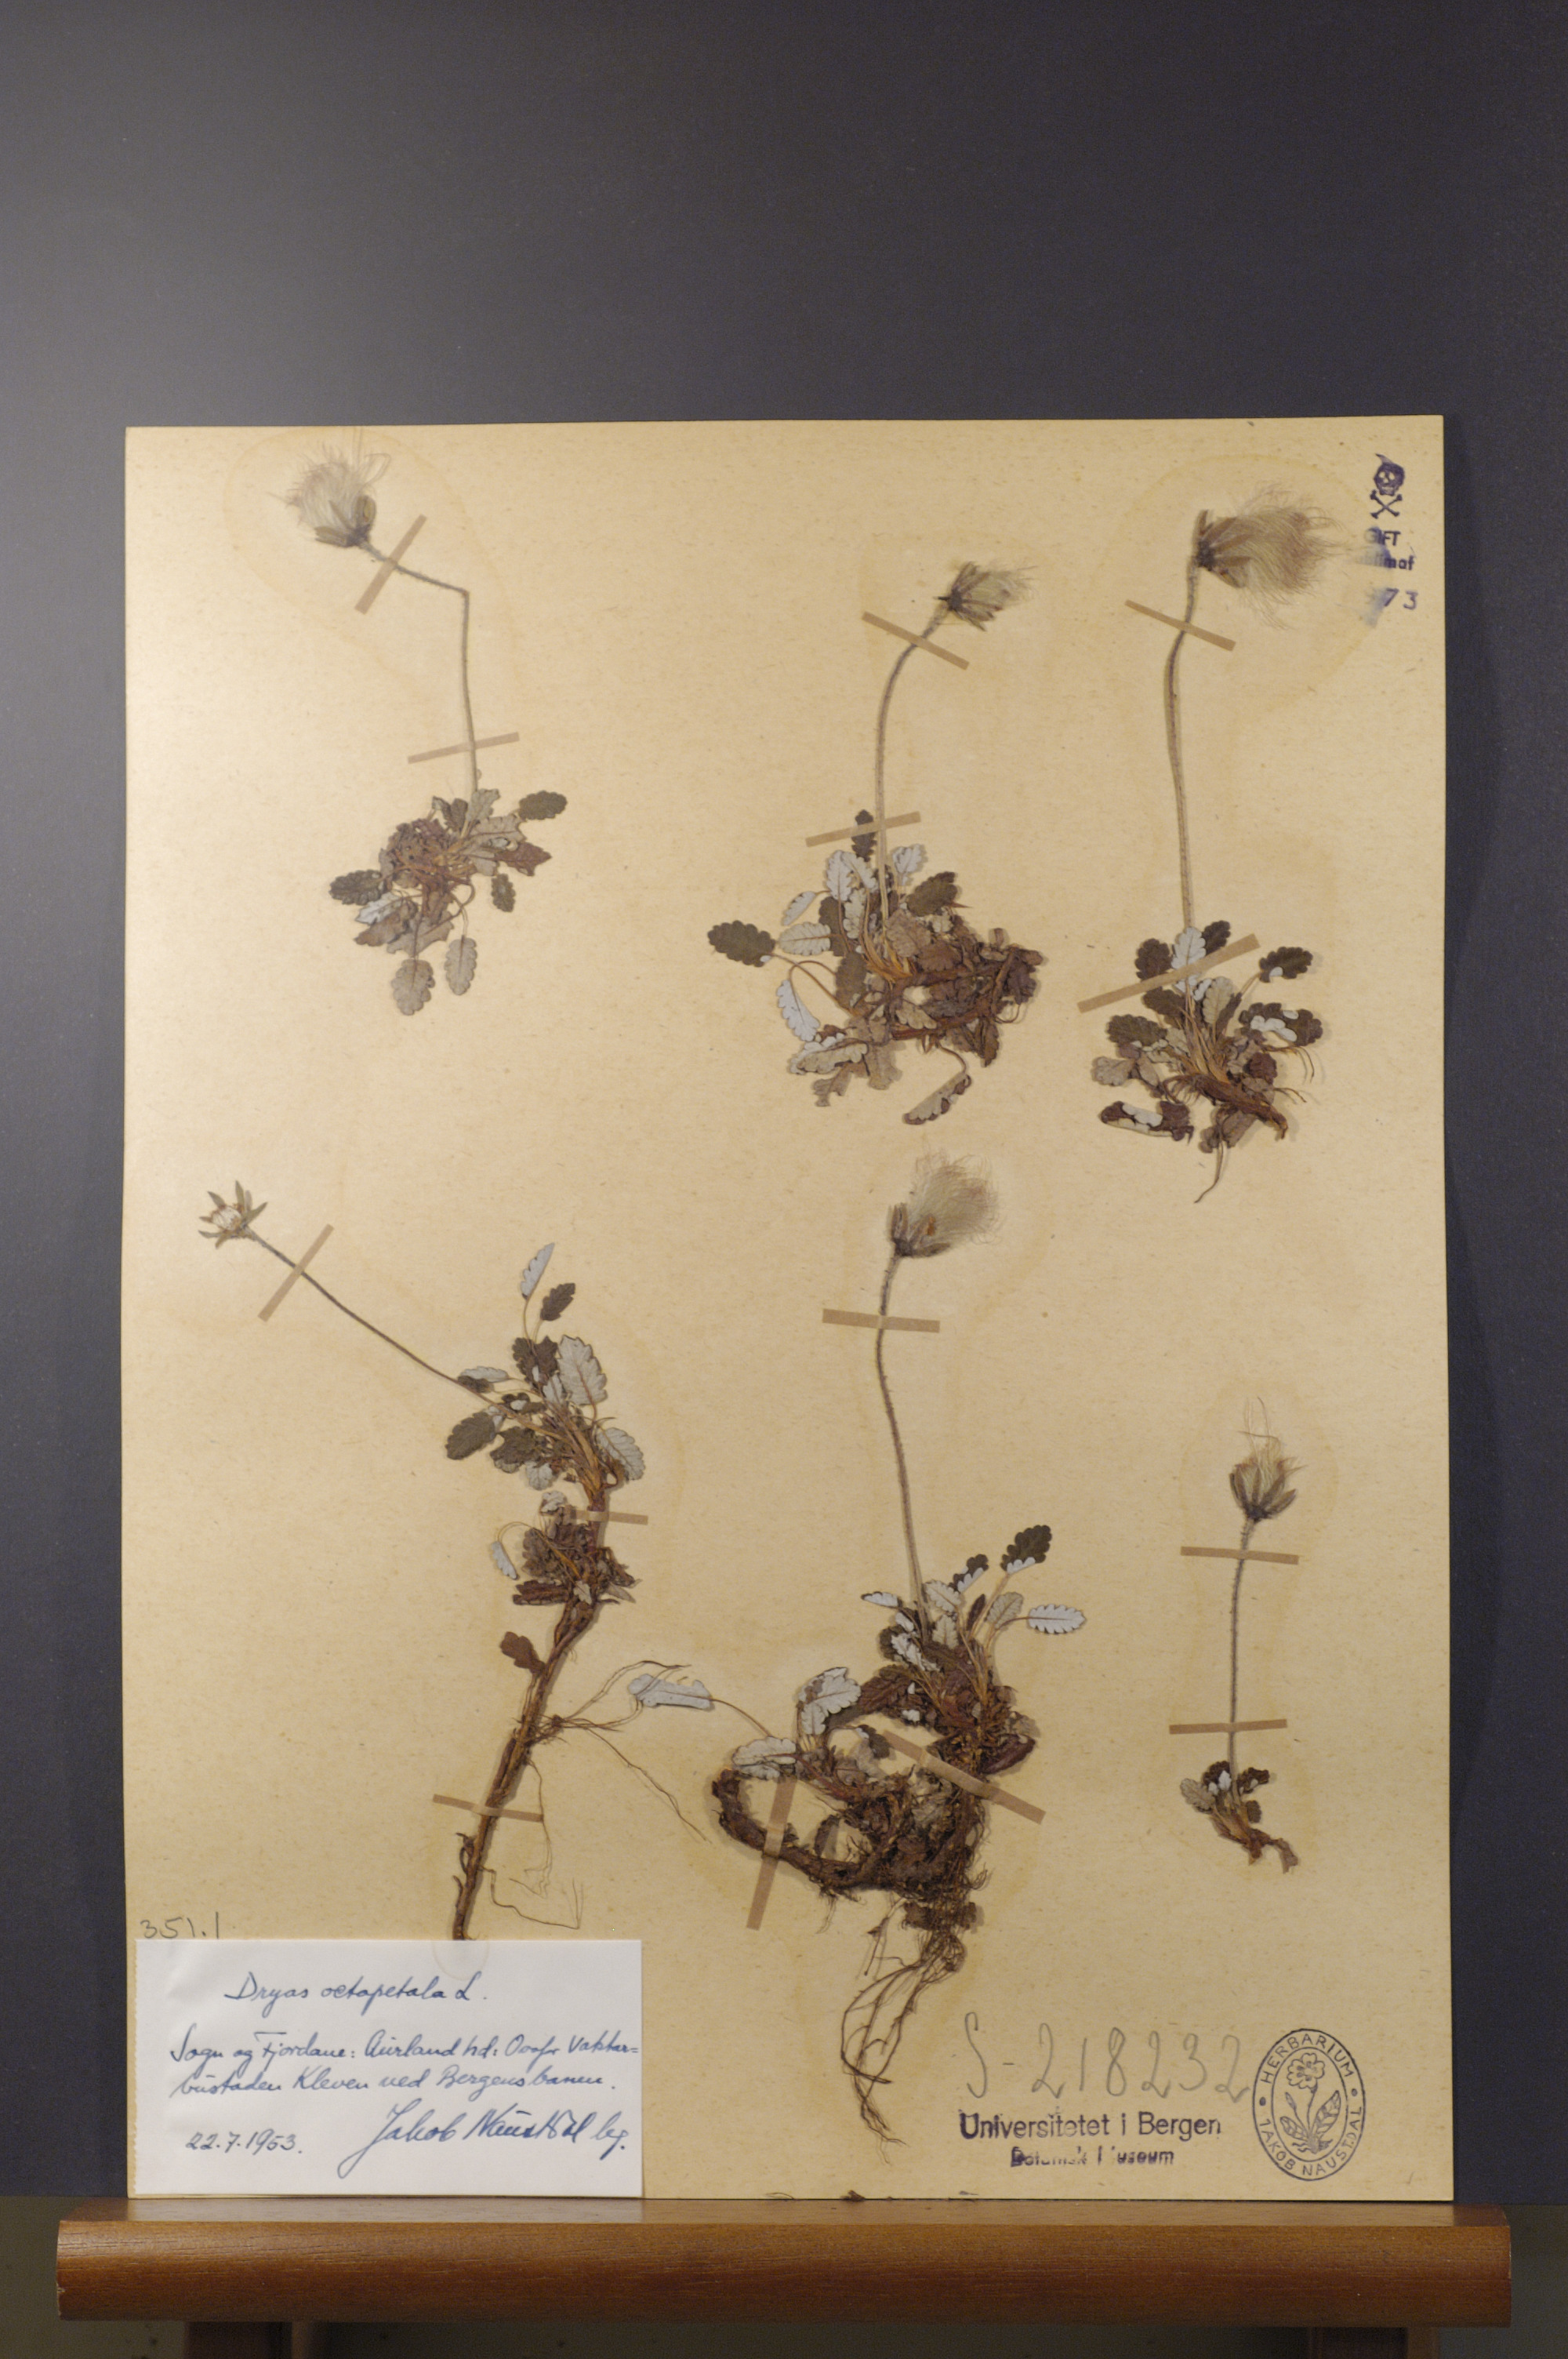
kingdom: Plantae
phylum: Tracheophyta
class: Magnoliopsida
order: Rosales
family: Rosaceae
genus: Dryas
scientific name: Dryas octopetala
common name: Eight-petal mountain-avens
